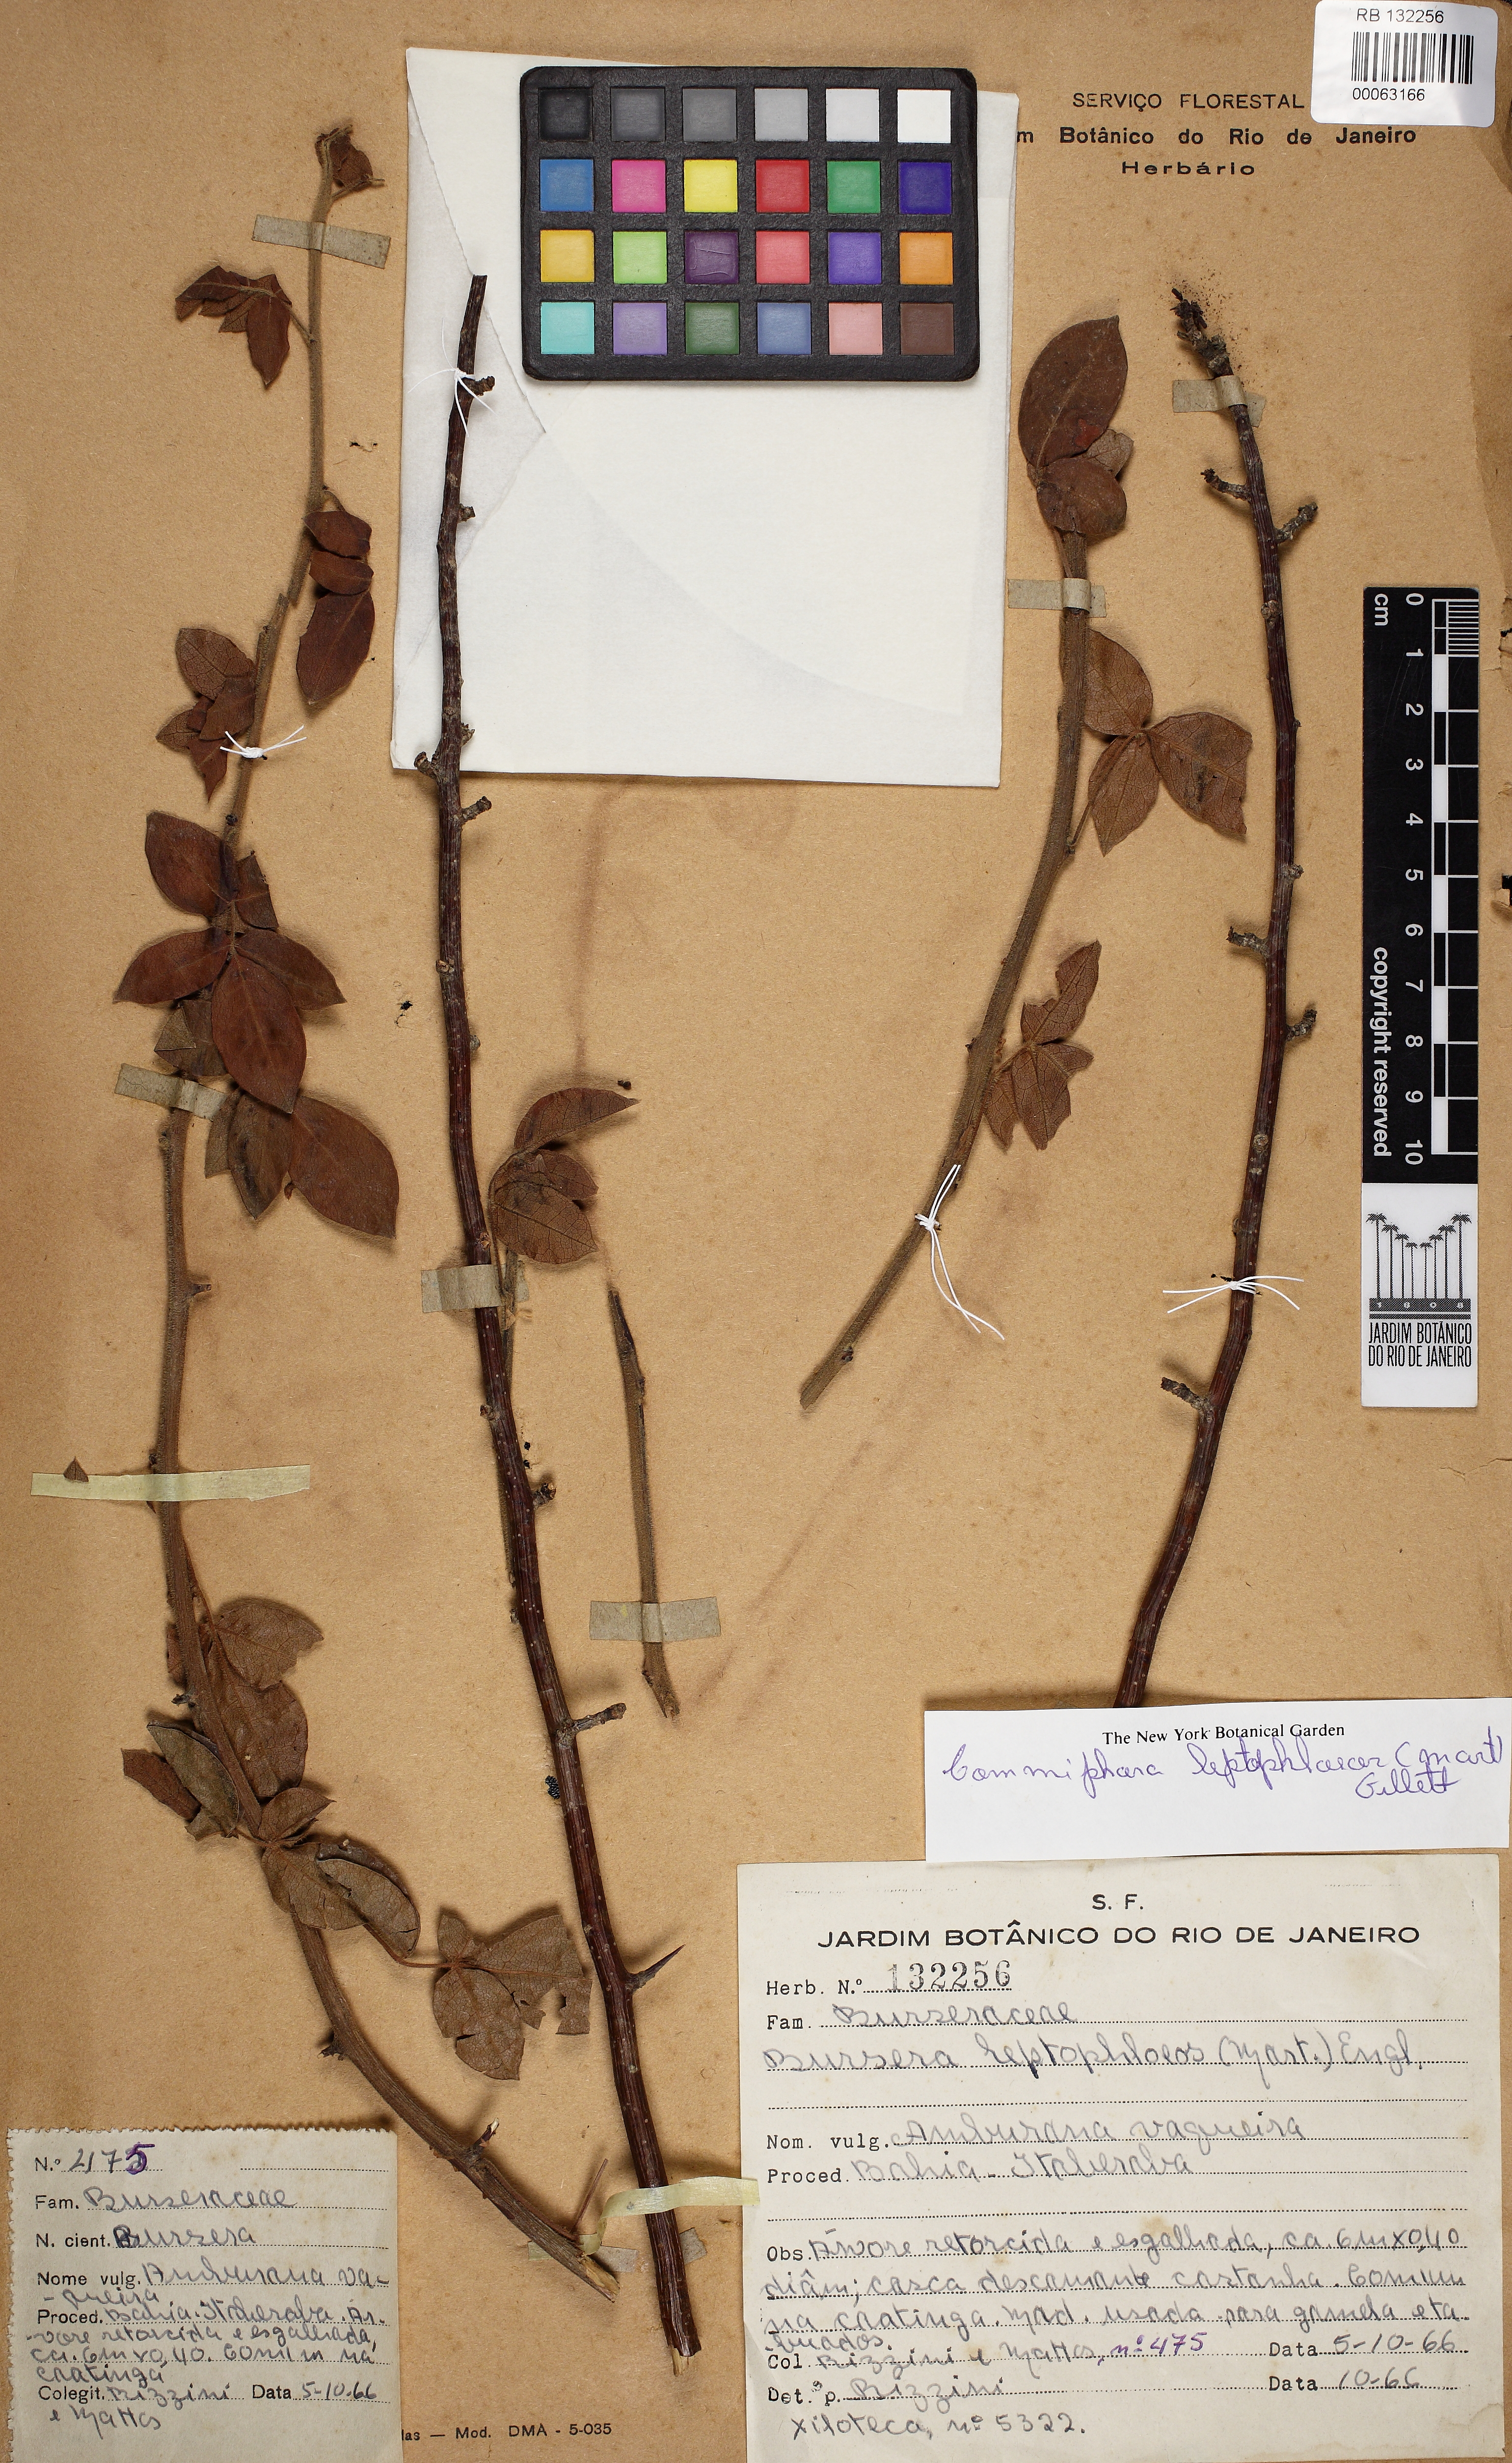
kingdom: Plantae
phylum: Tracheophyta
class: Magnoliopsida
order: Sapindales
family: Burseraceae
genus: Bursera
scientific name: Bursera leptophloeos
